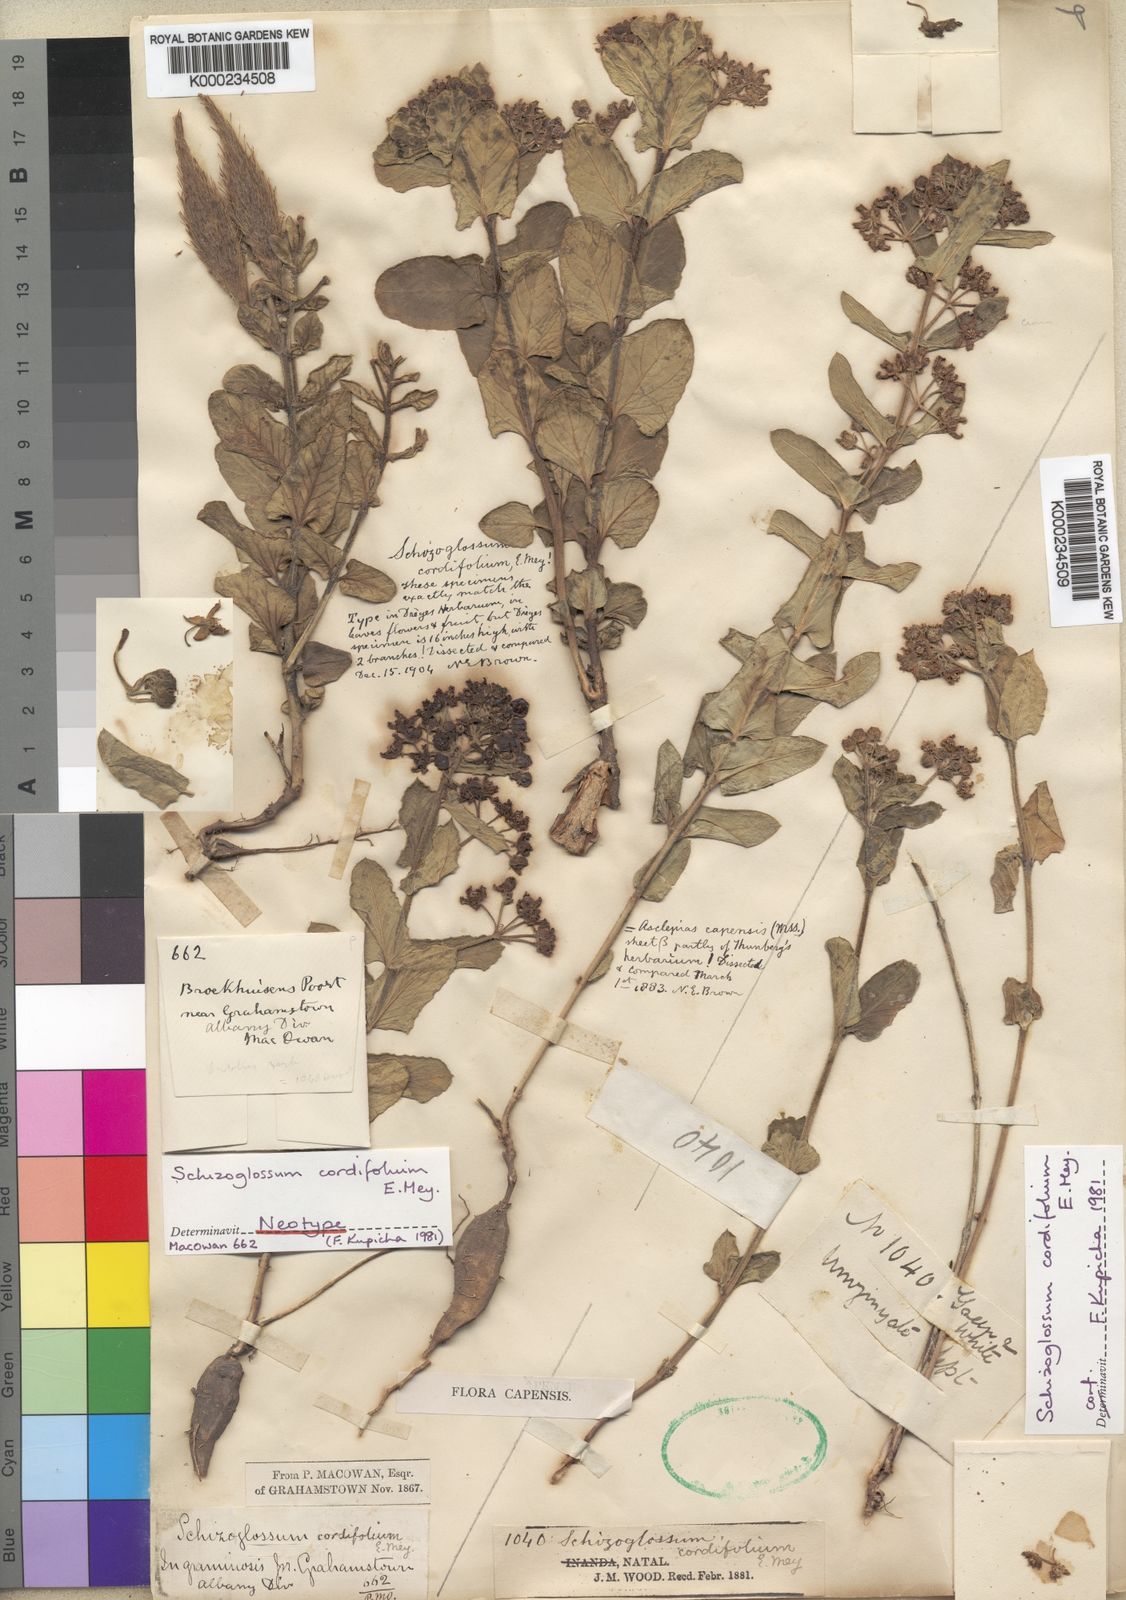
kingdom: Plantae
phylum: Tracheophyta
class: Magnoliopsida
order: Gentianales
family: Apocynaceae
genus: Schizoglossum
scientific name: Schizoglossum cordifolium
